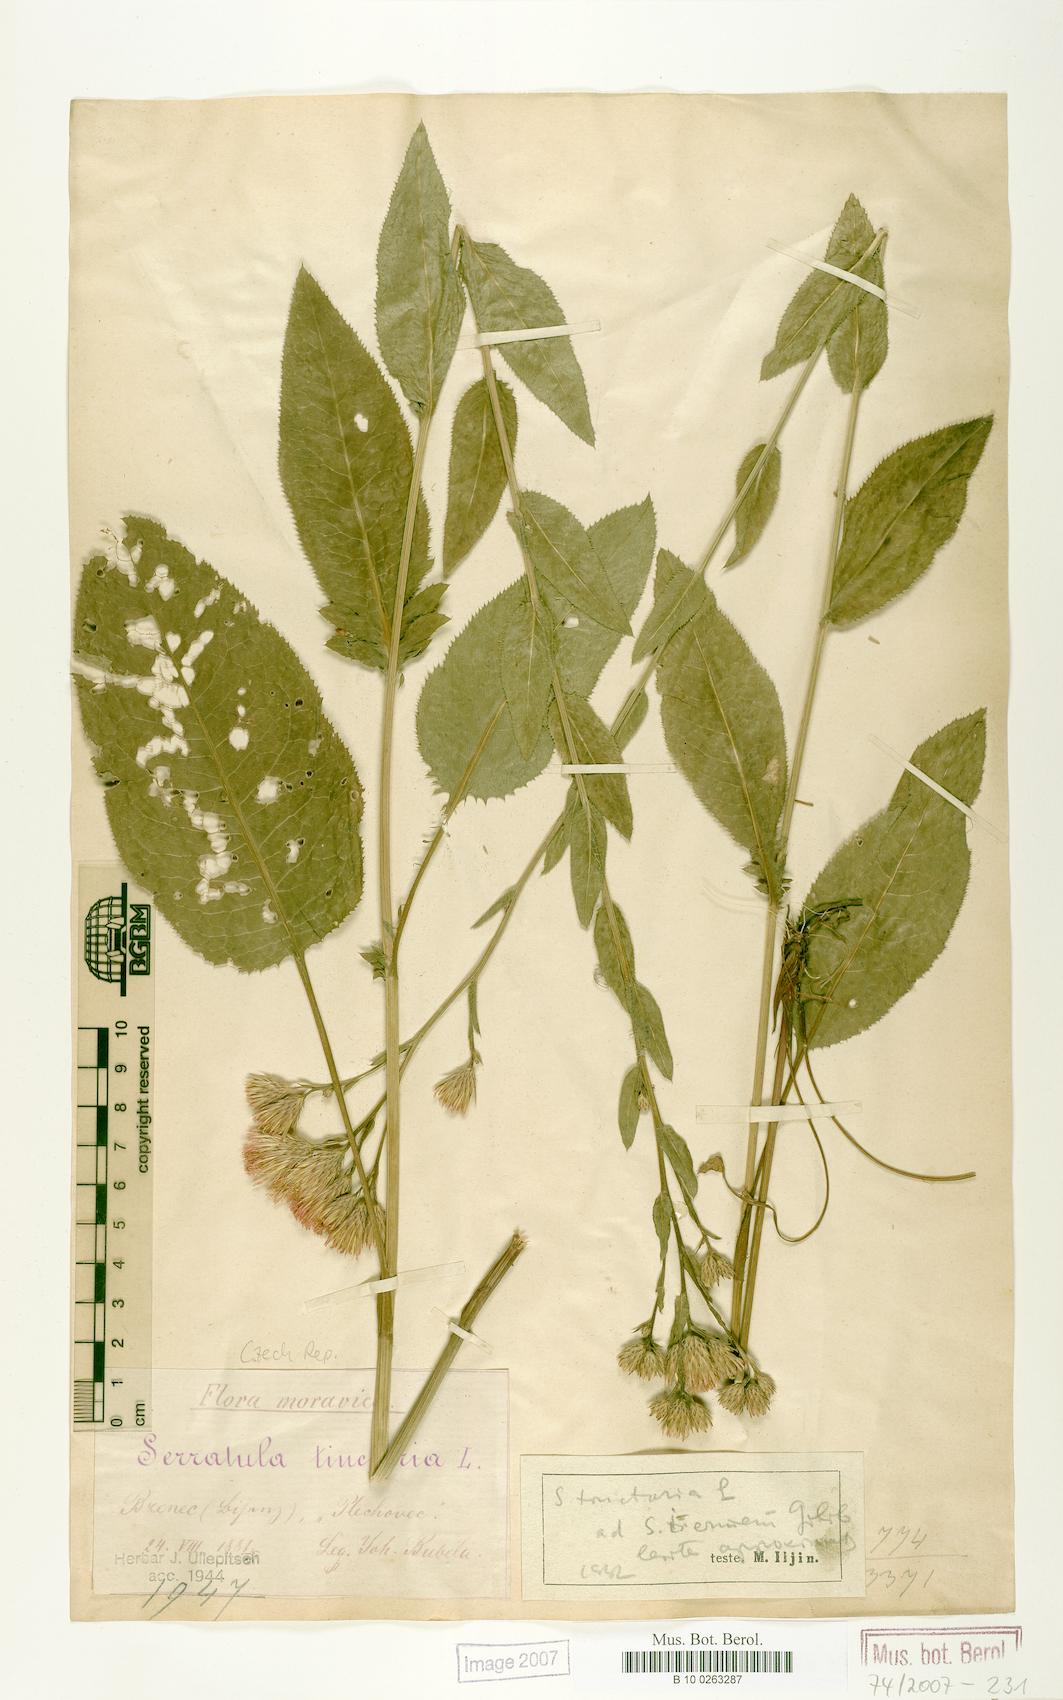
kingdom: Plantae
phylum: Tracheophyta
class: Magnoliopsida
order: Asterales
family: Asteraceae
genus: Serratula
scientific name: Serratula tinctoria
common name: Saw-wort
